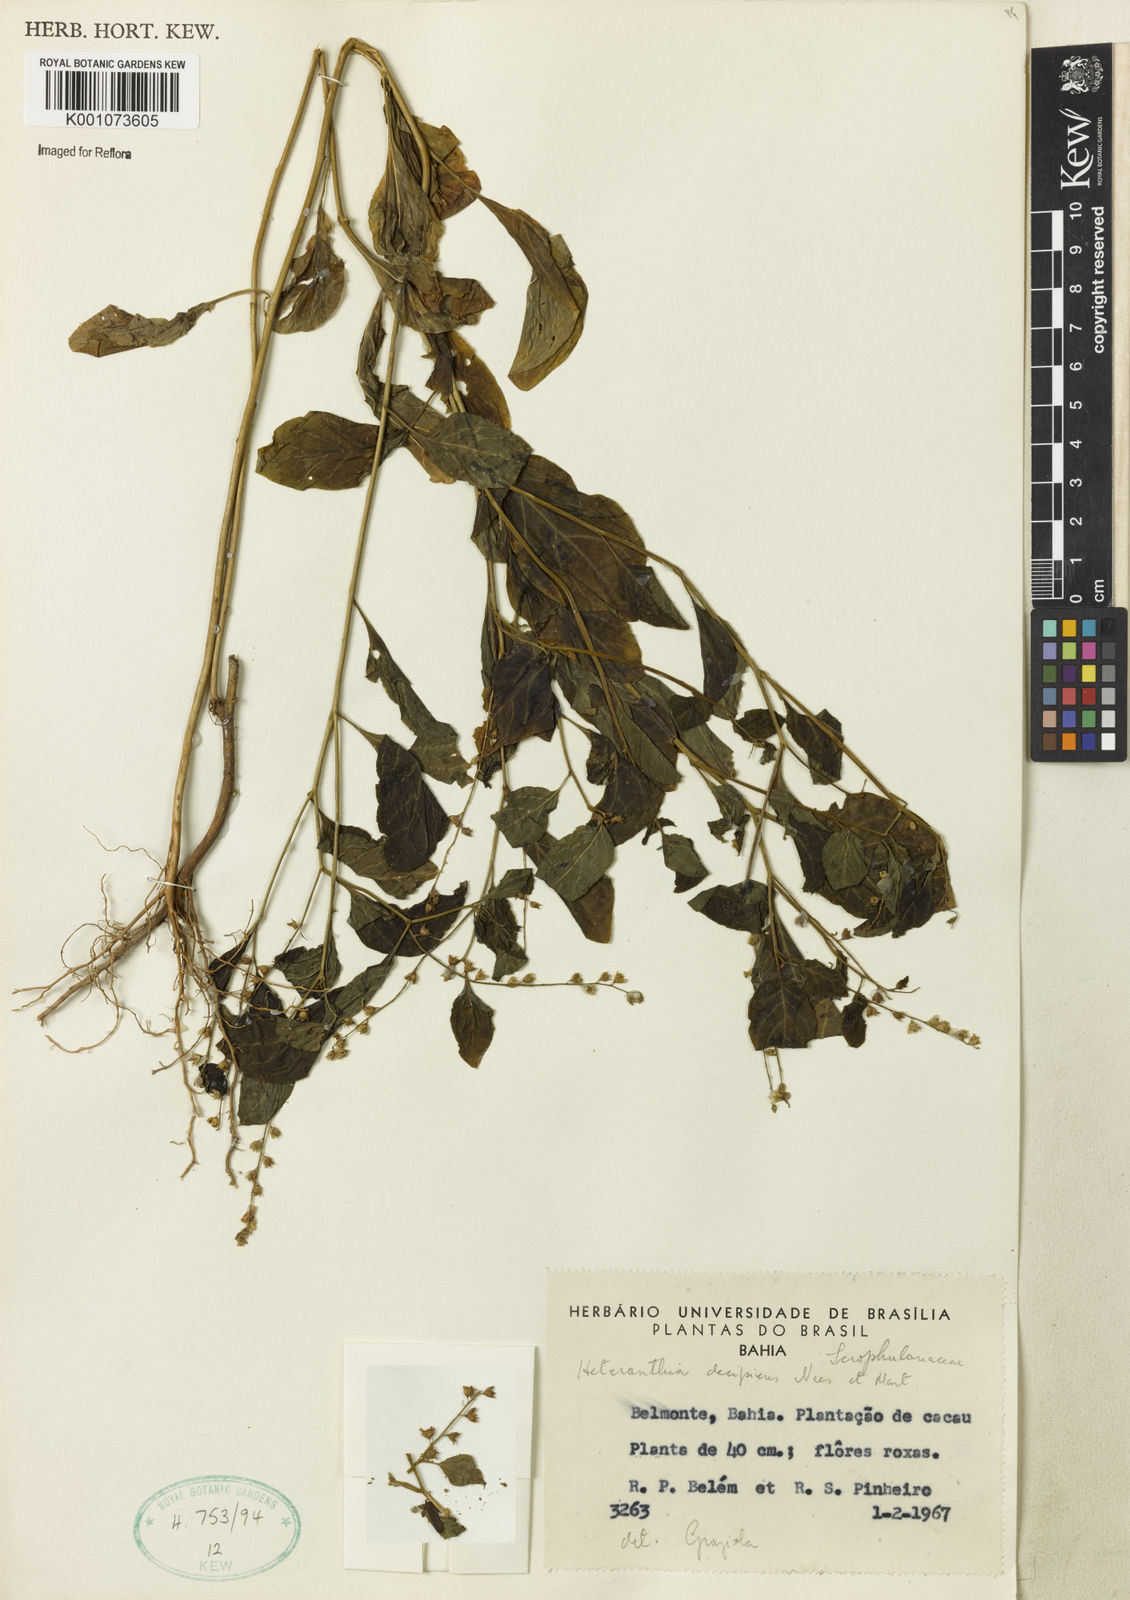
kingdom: Plantae
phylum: Tracheophyta
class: Magnoliopsida
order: Solanales
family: Solanaceae
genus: Heteranthia
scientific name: Heteranthia decipiens
